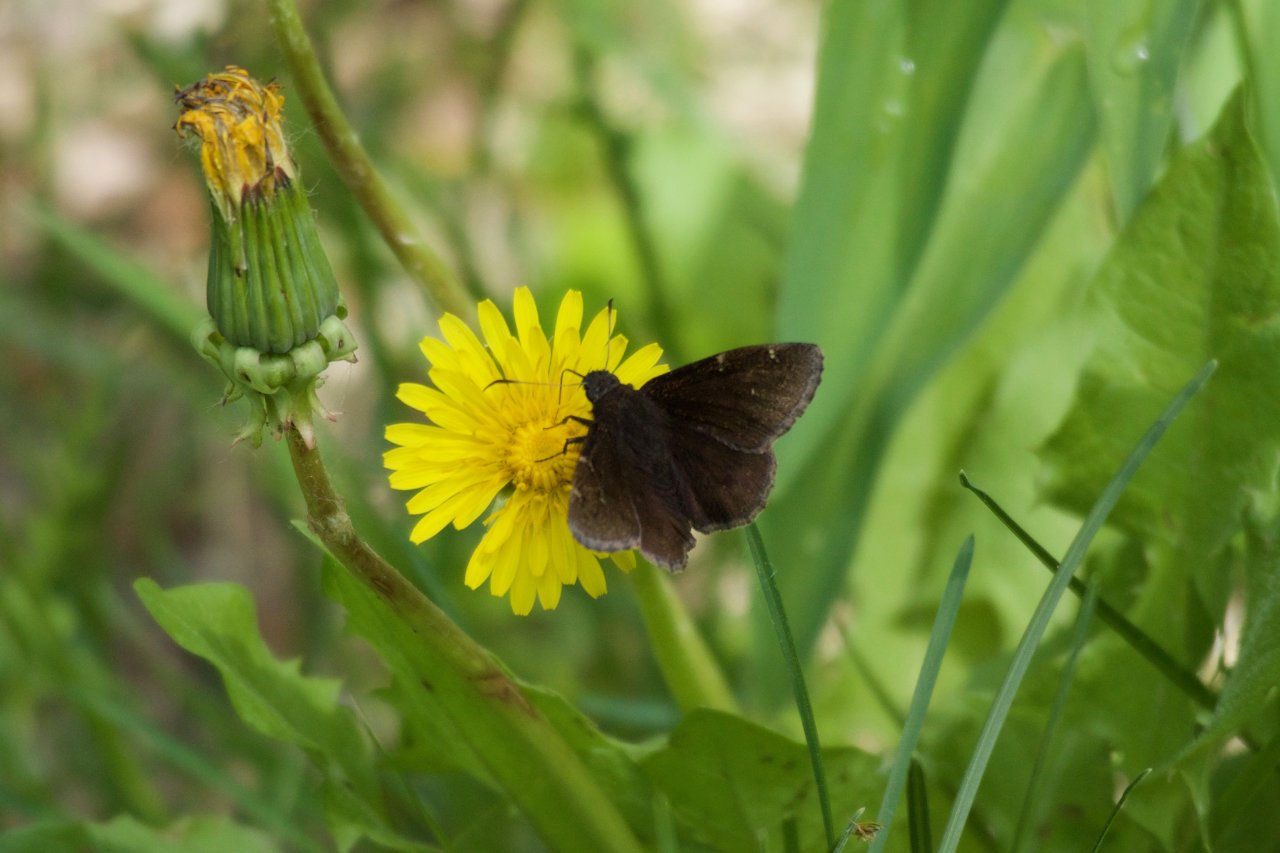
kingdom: Animalia
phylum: Arthropoda
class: Insecta
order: Lepidoptera
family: Hesperiidae
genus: Autochton
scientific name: Autochton
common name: Northern Cloudywing
